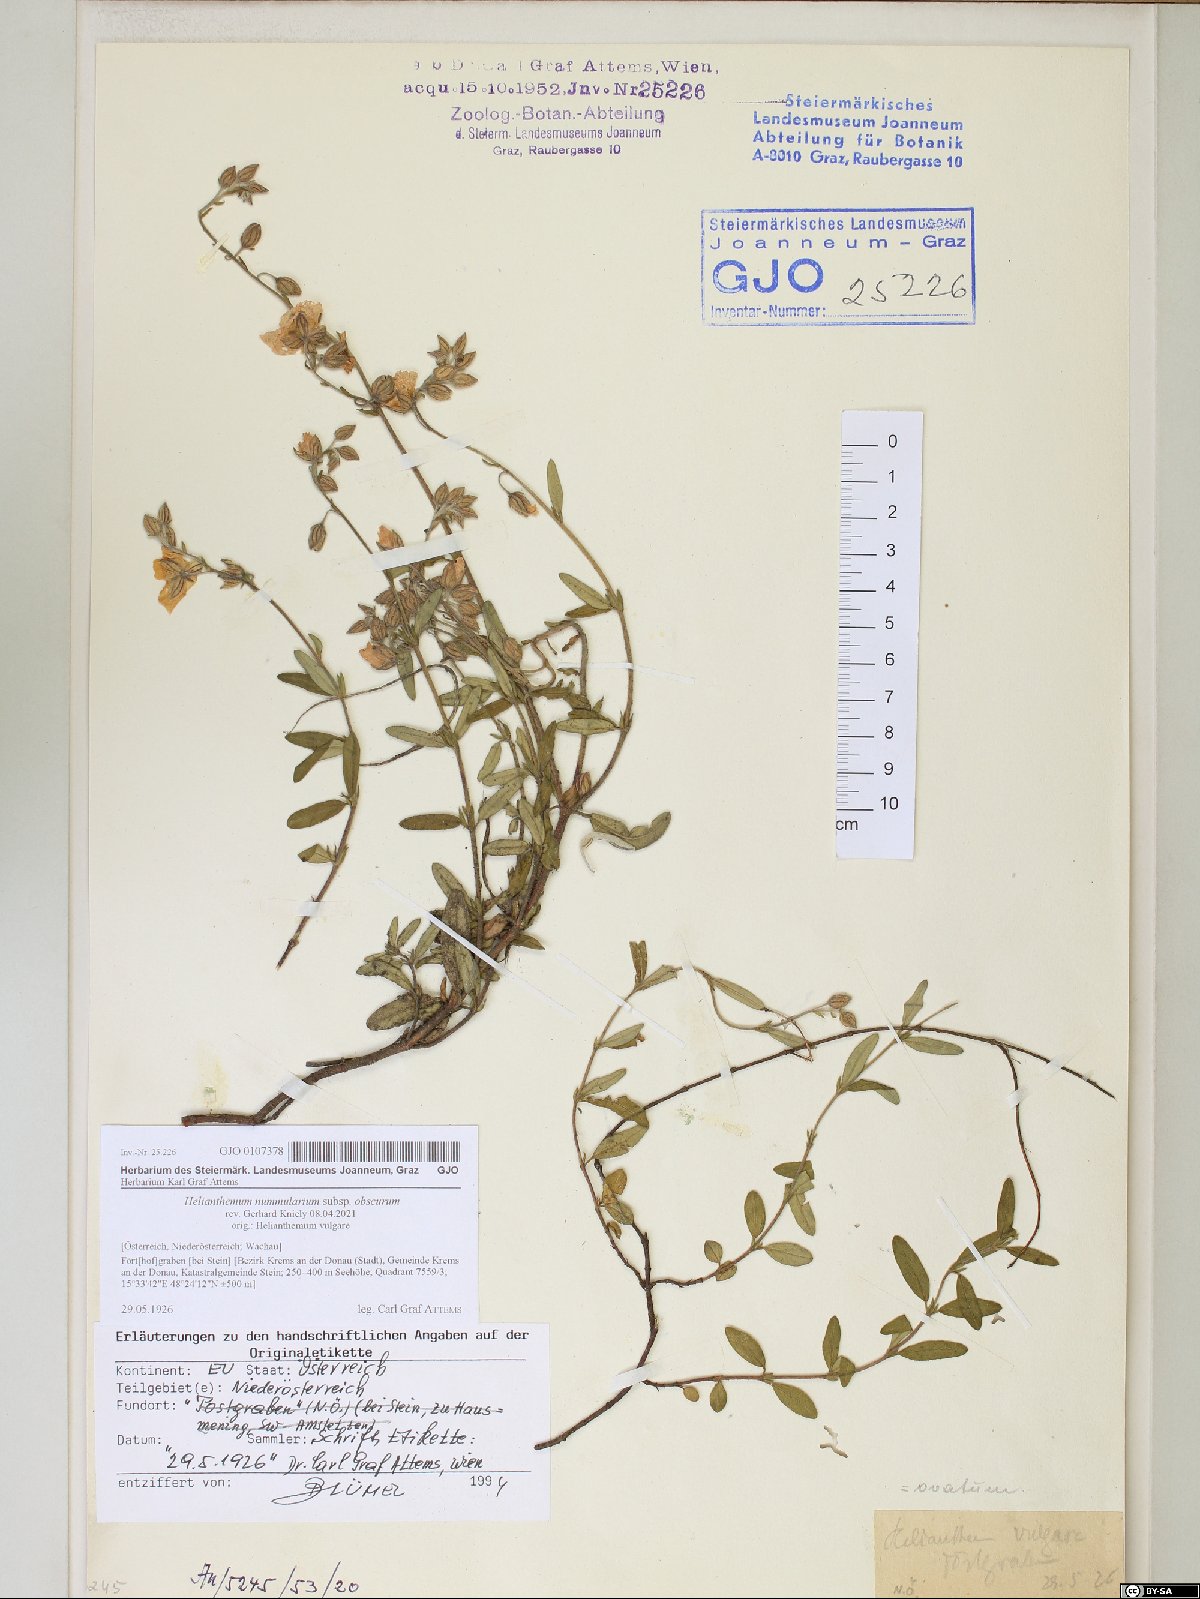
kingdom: Plantae
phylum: Tracheophyta
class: Magnoliopsida
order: Malvales
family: Cistaceae
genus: Helianthemum
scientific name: Helianthemum nummularium
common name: Common rock-rose
